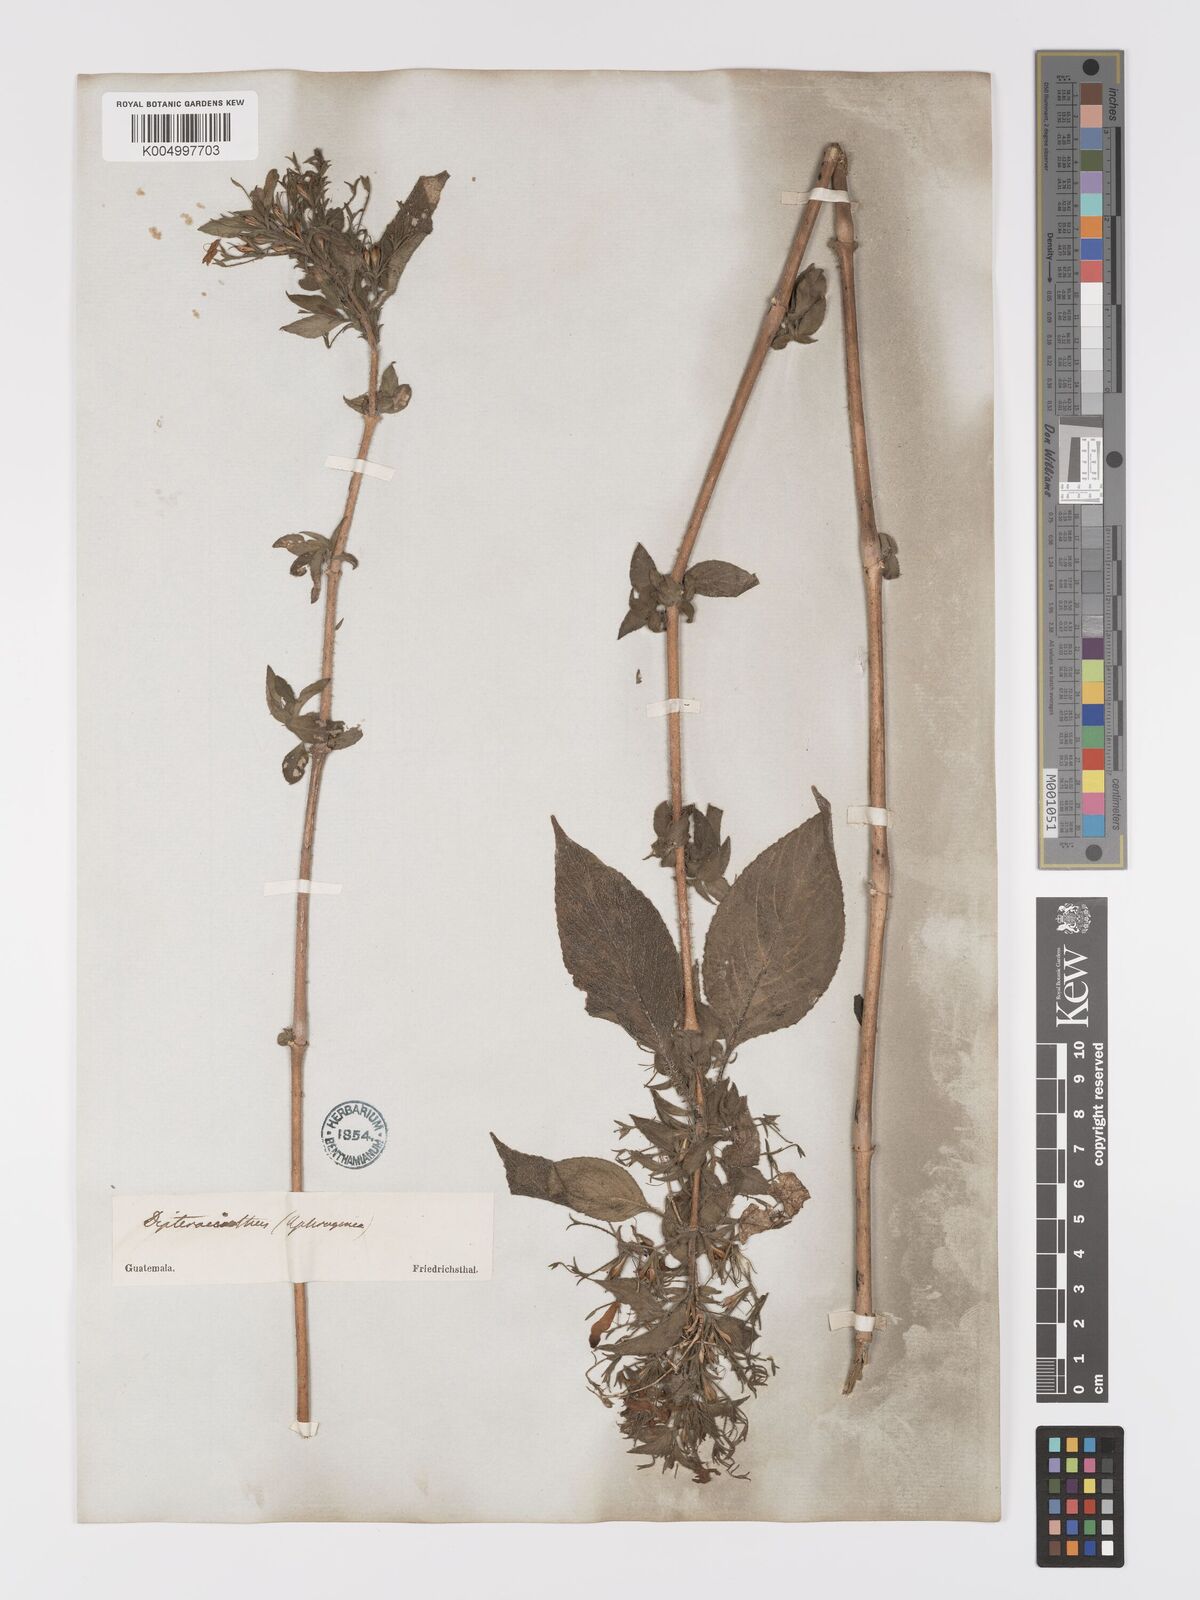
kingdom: Plantae
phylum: Tracheophyta
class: Magnoliopsida
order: Lamiales
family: Acanthaceae
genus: Ruellia
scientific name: Ruellia inundata
